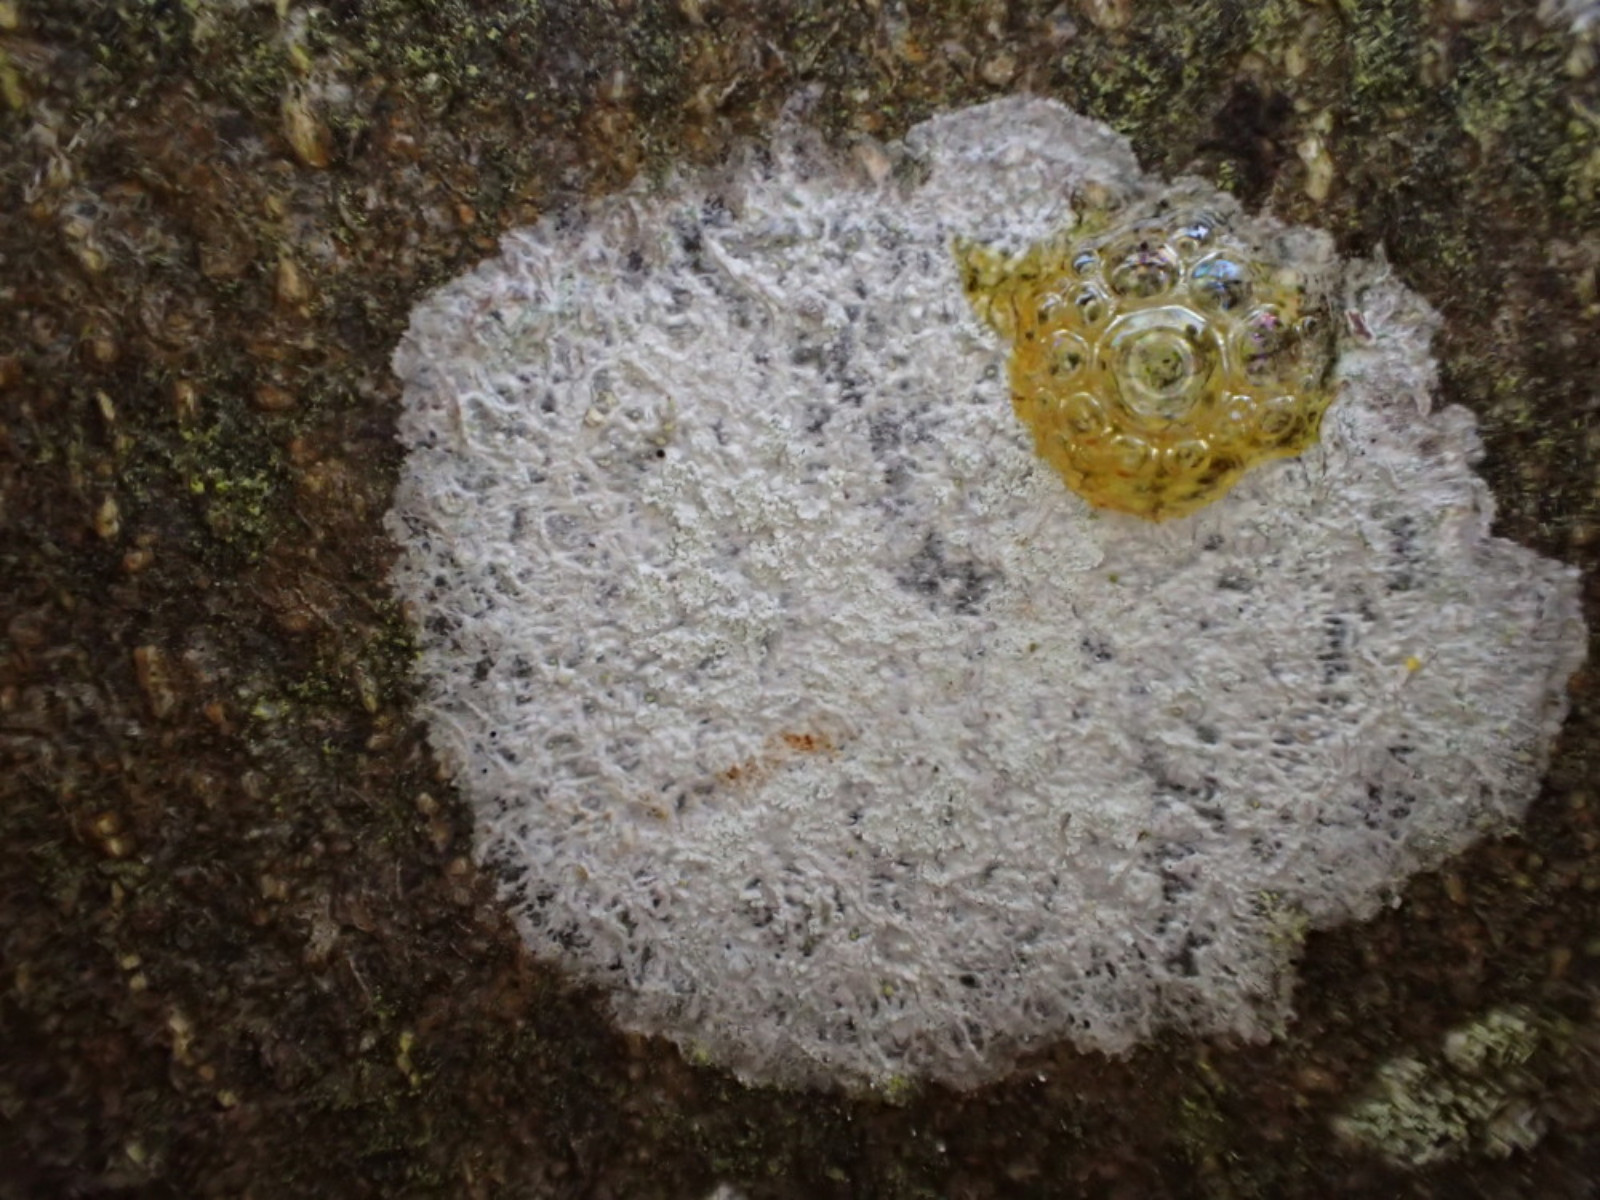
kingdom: Fungi
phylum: Ascomycota
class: Lecanoromycetes
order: Ostropales
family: Phlyctidaceae
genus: Phlyctis
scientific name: Phlyctis argena
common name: almindelig sølvlav
